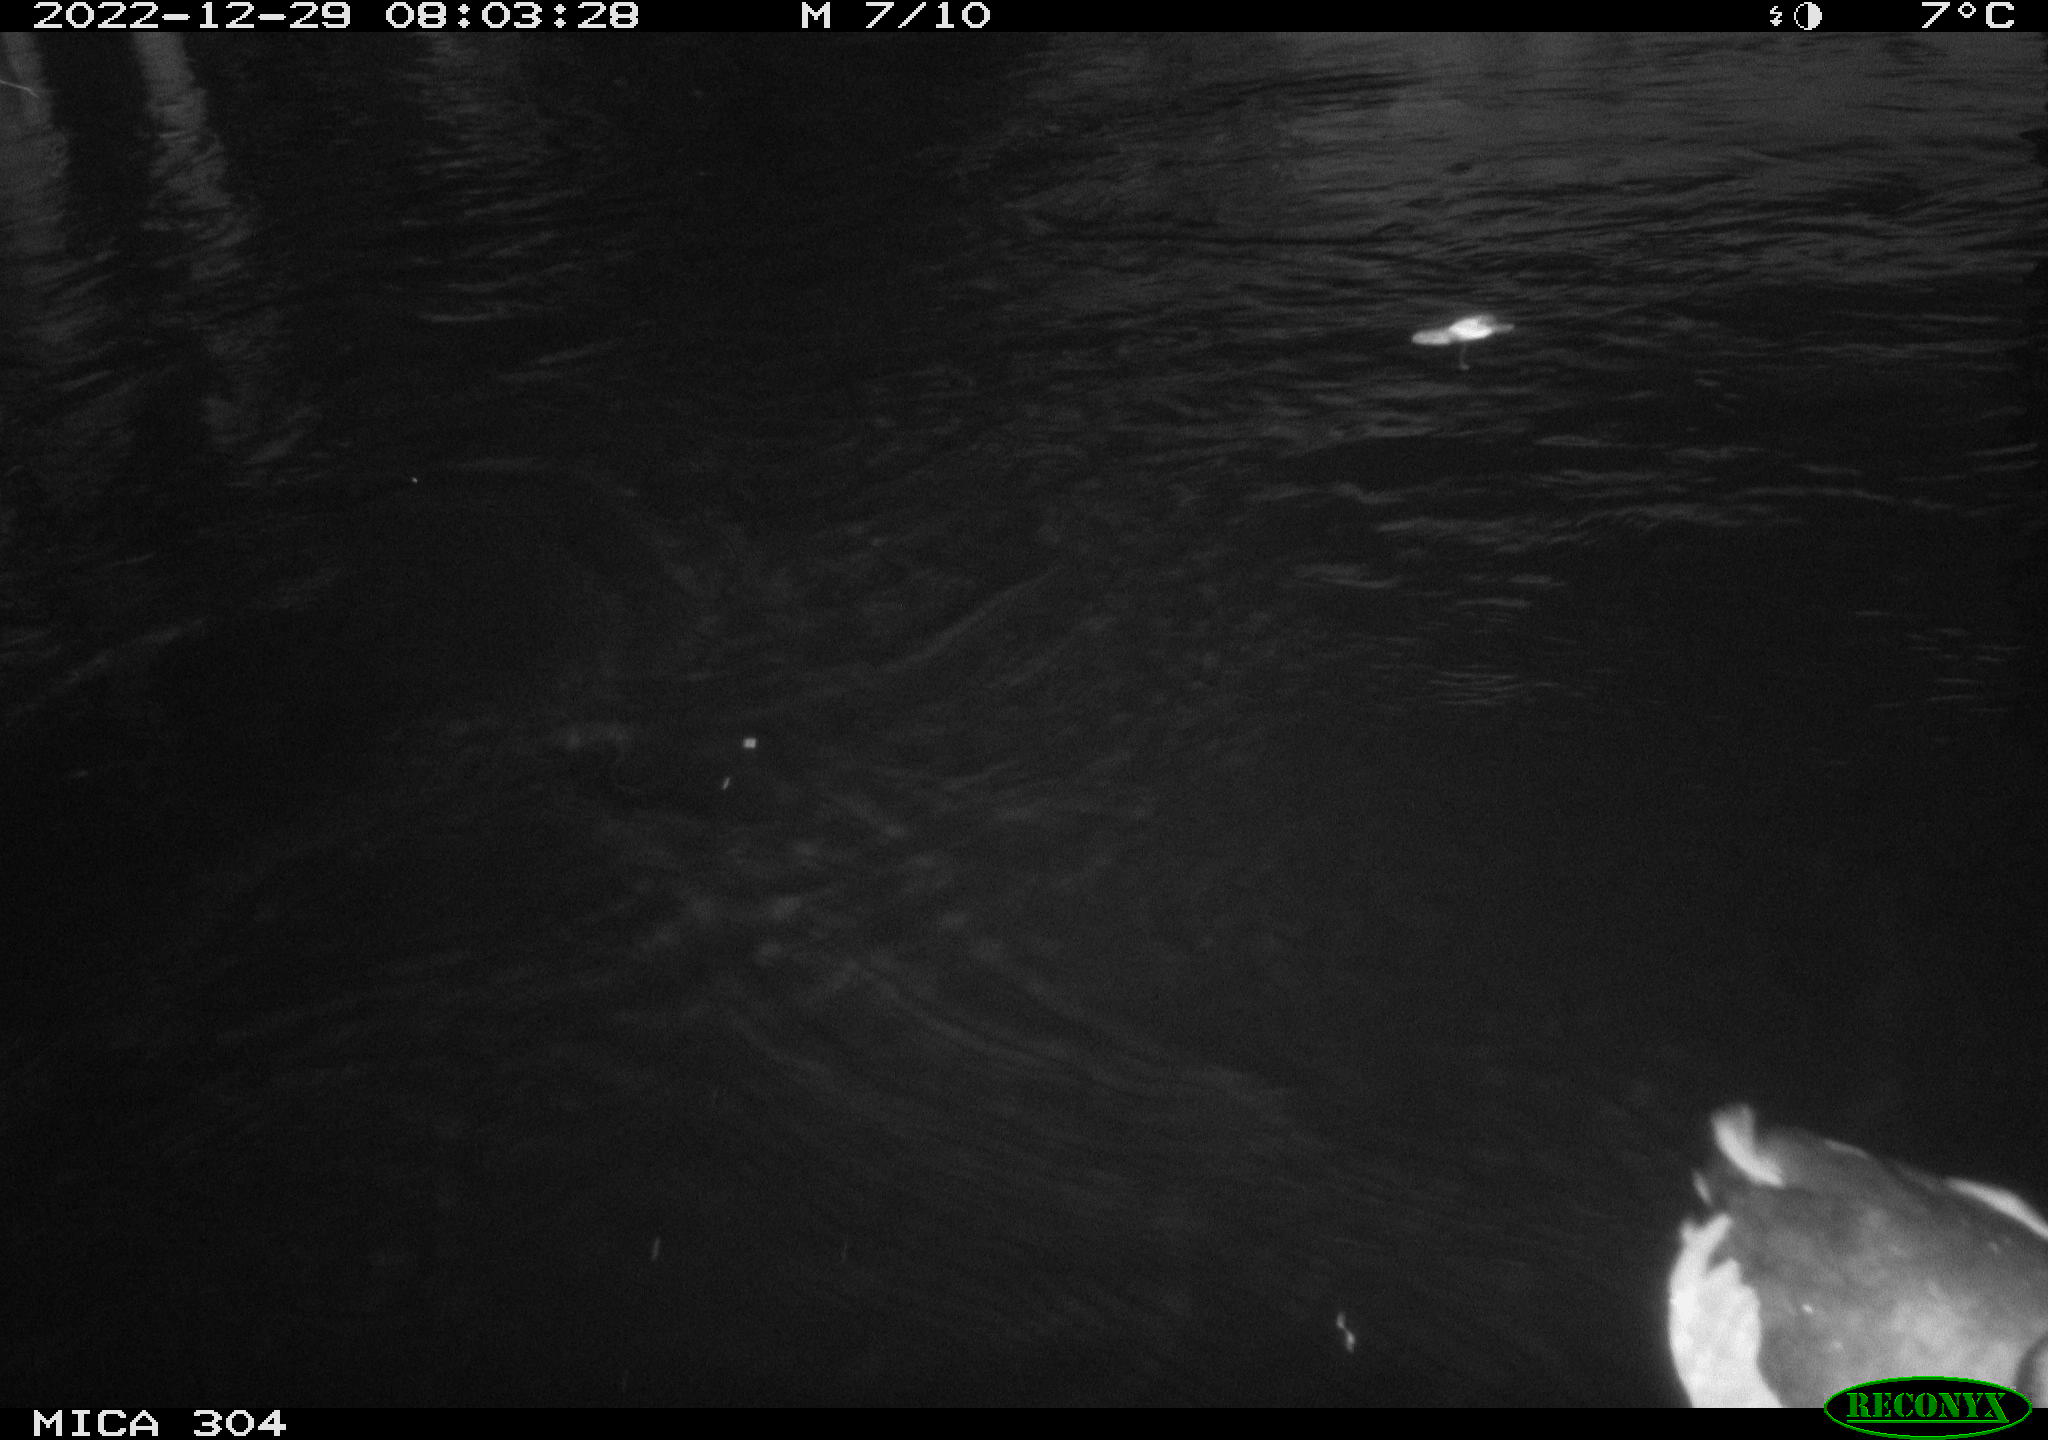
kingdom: Animalia
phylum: Chordata
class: Aves
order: Anseriformes
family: Anatidae
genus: Anas
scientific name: Anas
